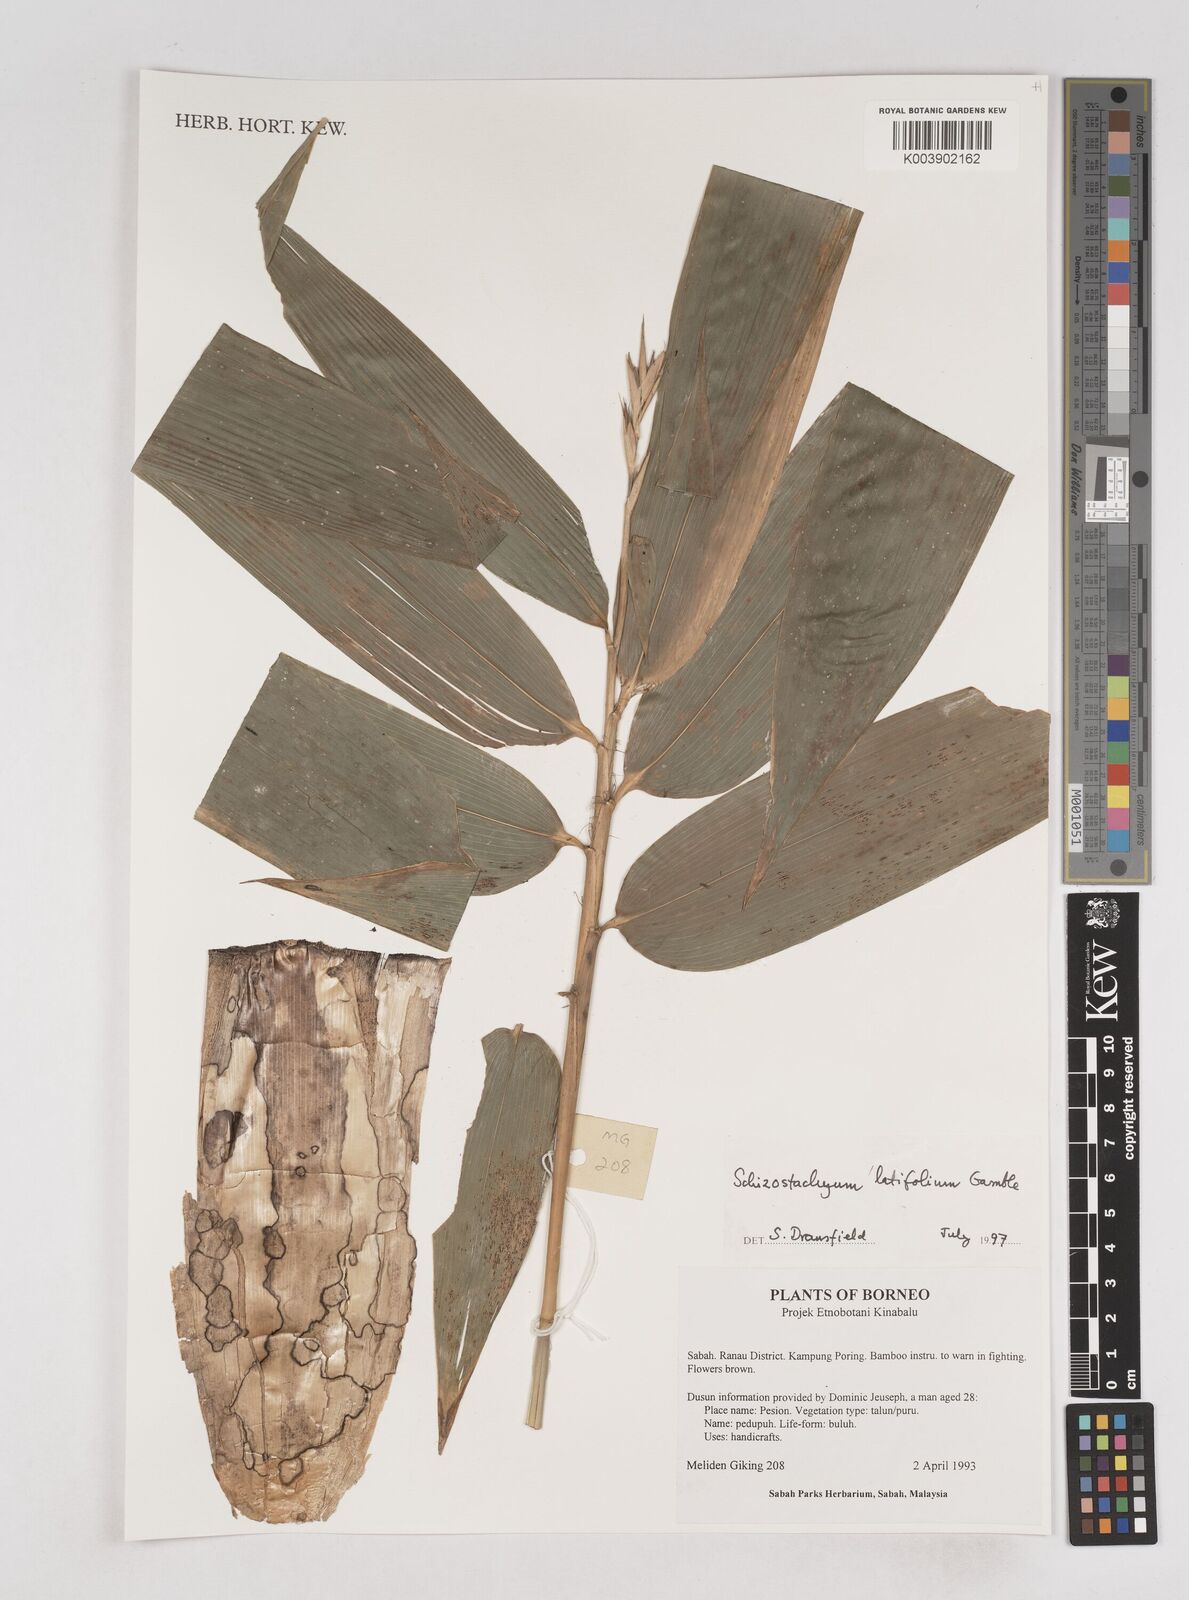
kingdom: Plantae
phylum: Tracheophyta
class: Liliopsida
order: Poales
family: Poaceae
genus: Schizostachyum
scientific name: Schizostachyum latifolium
